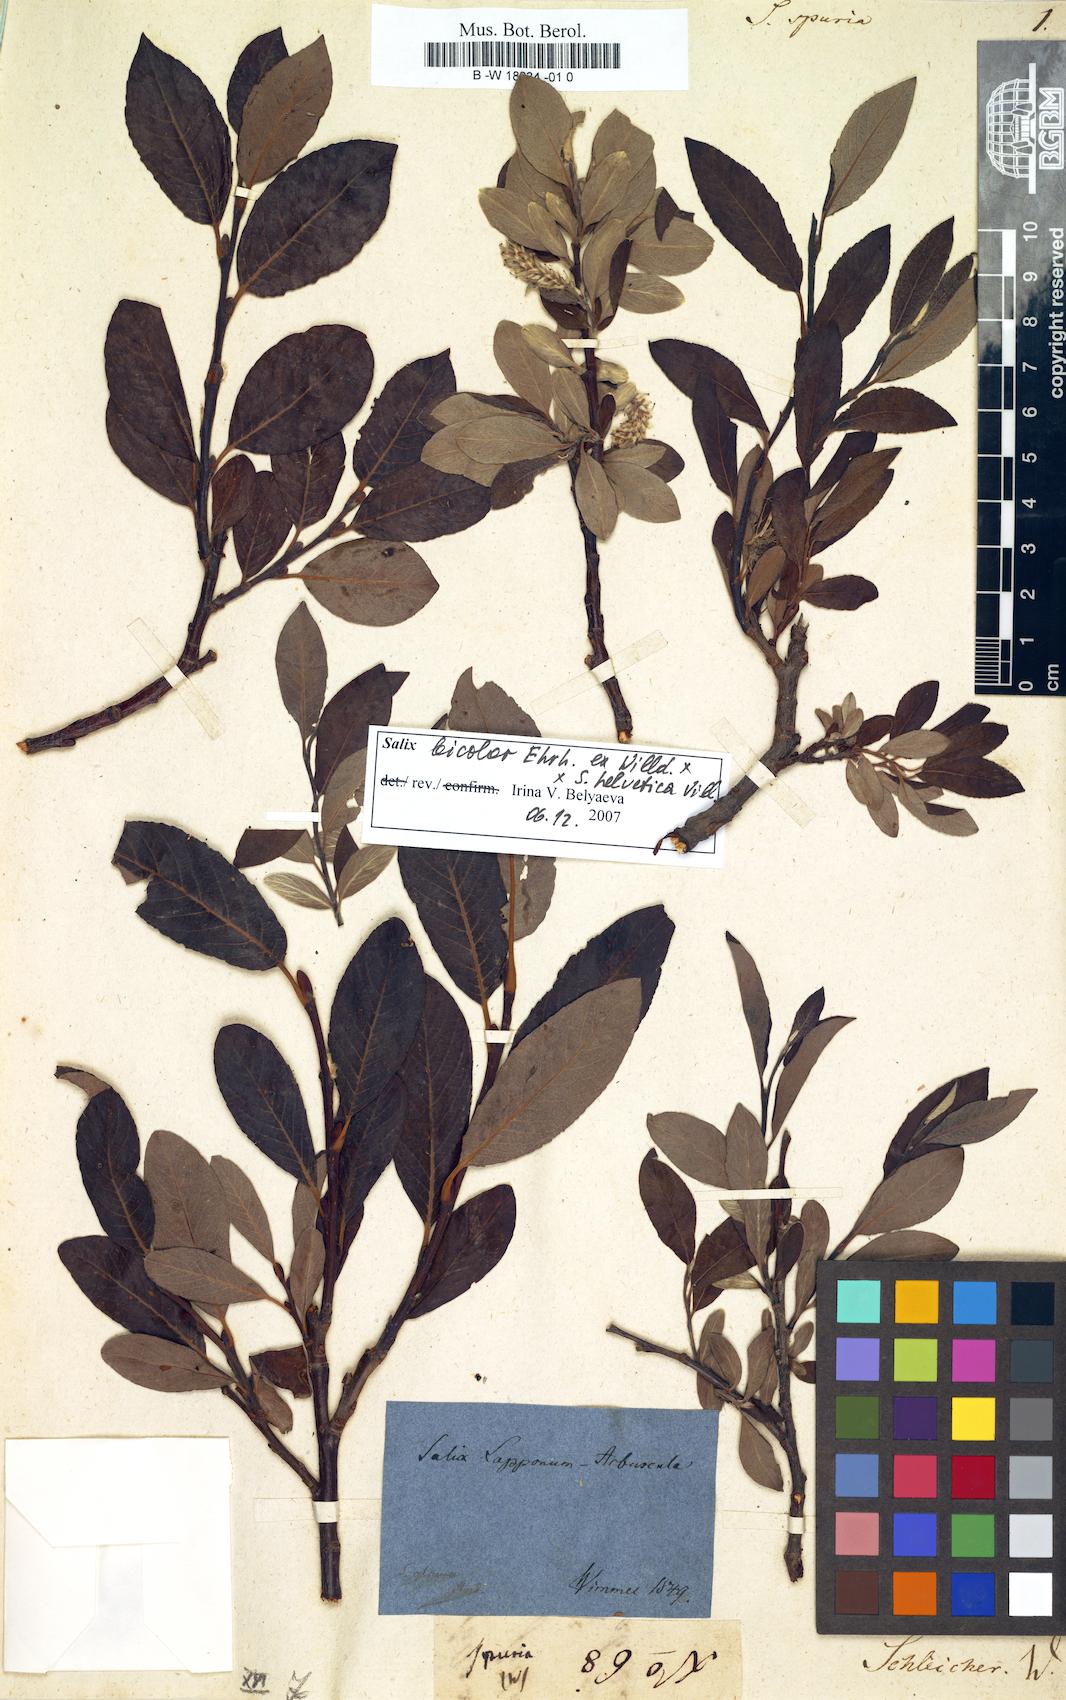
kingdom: Plantae
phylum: Tracheophyta
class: Magnoliopsida
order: Malpighiales
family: Salicaceae
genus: Salix
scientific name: Salix spuria
